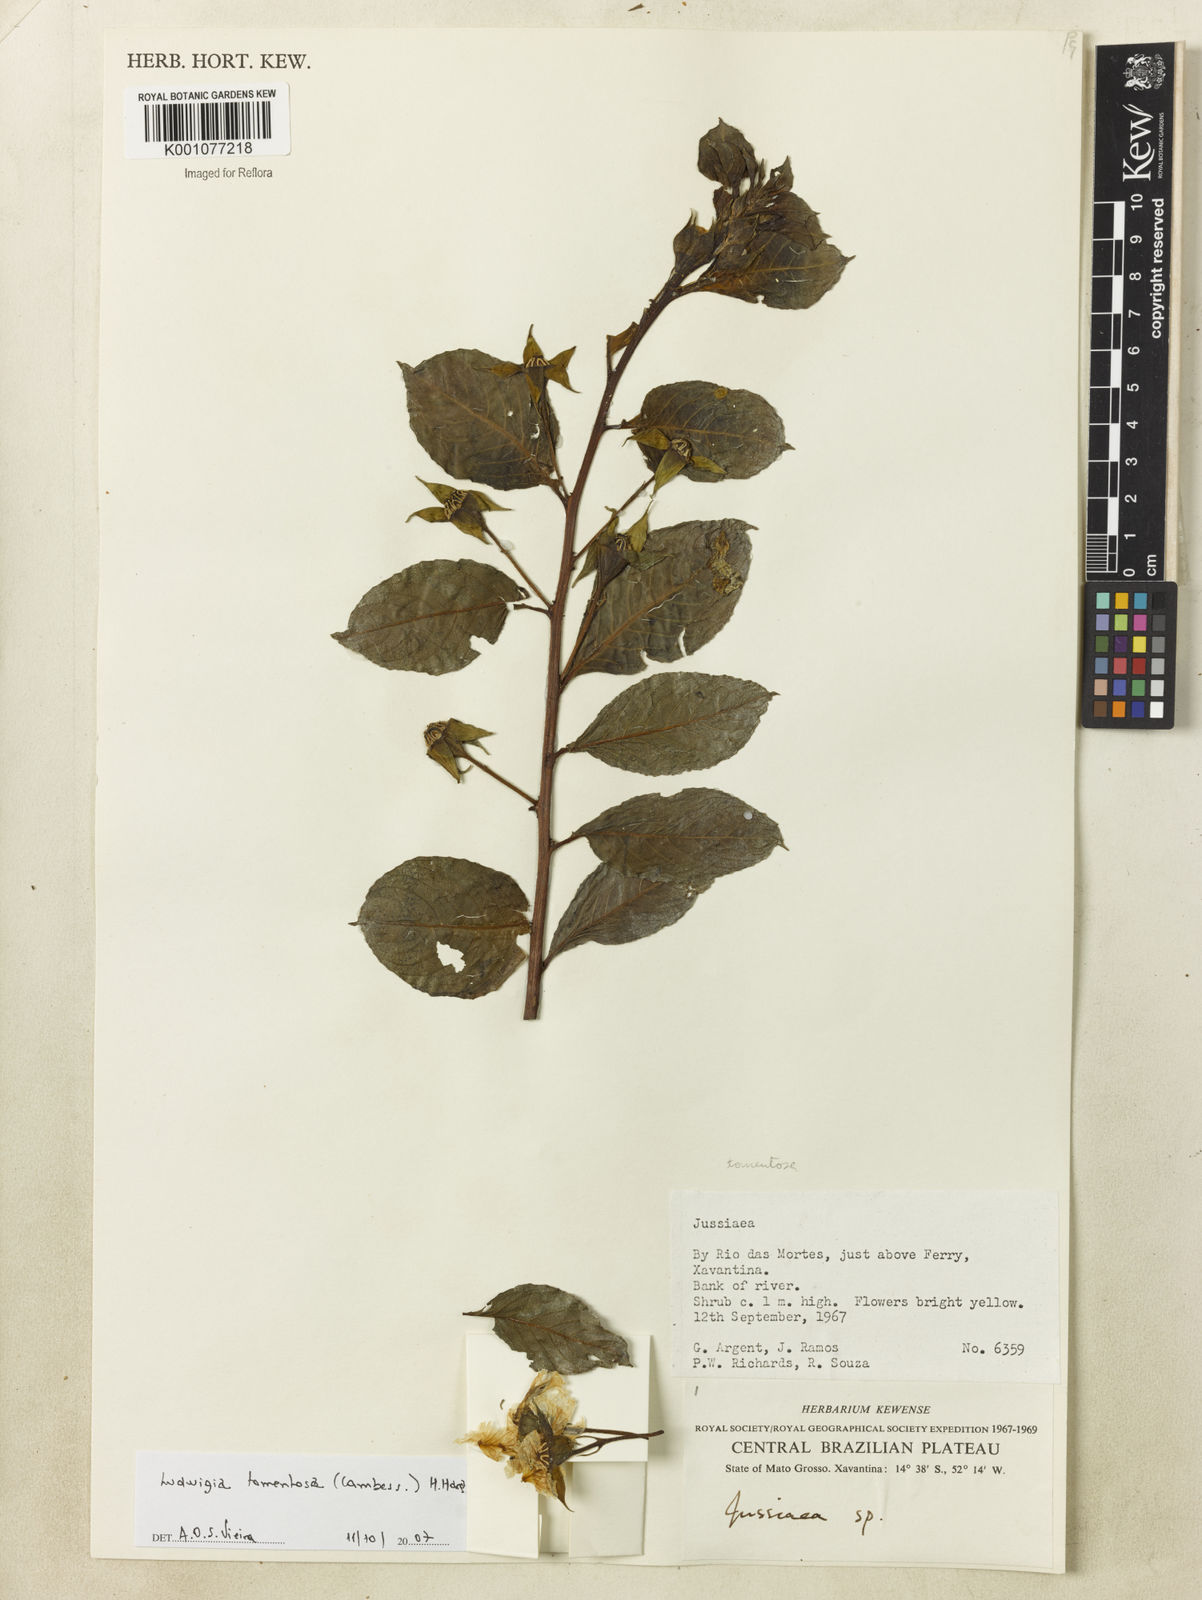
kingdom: Plantae
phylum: Tracheophyta
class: Magnoliopsida
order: Myrtales
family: Onagraceae
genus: Ludwigia
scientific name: Ludwigia tomentosa
